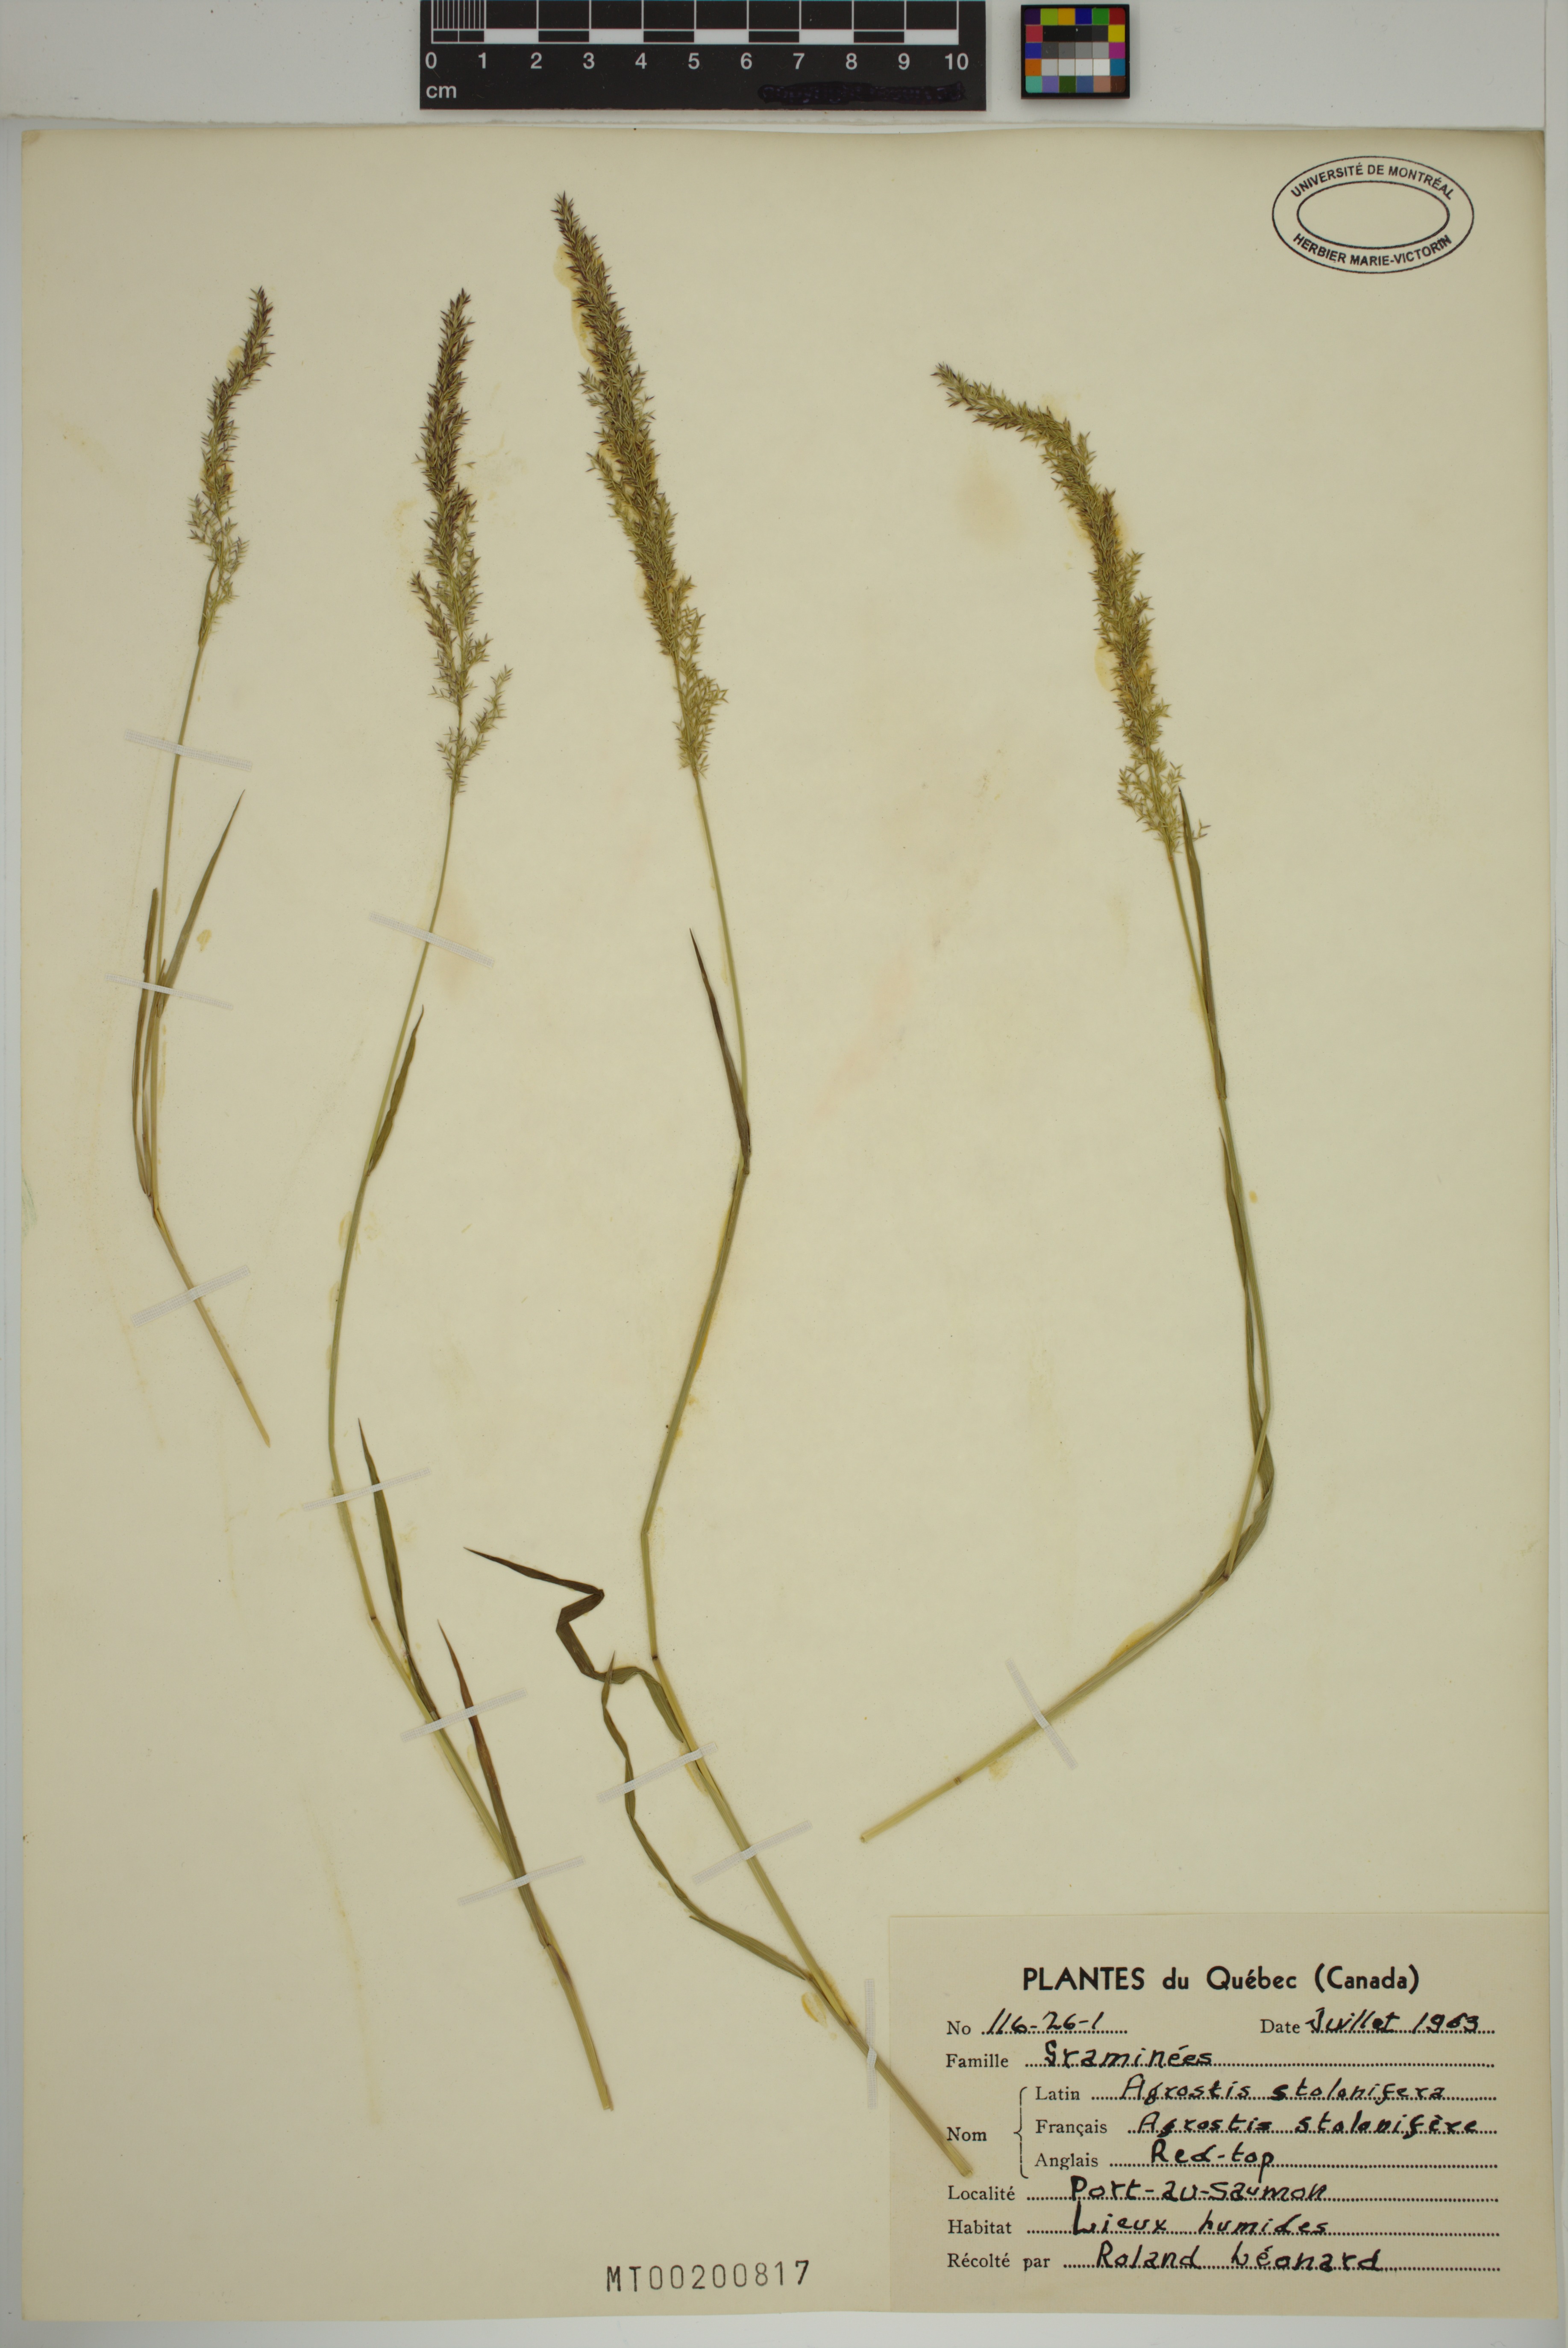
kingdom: Plantae
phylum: Tracheophyta
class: Liliopsida
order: Poales
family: Poaceae
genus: Agrostis
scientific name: Agrostis stolonifera
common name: Creeping bentgrass
